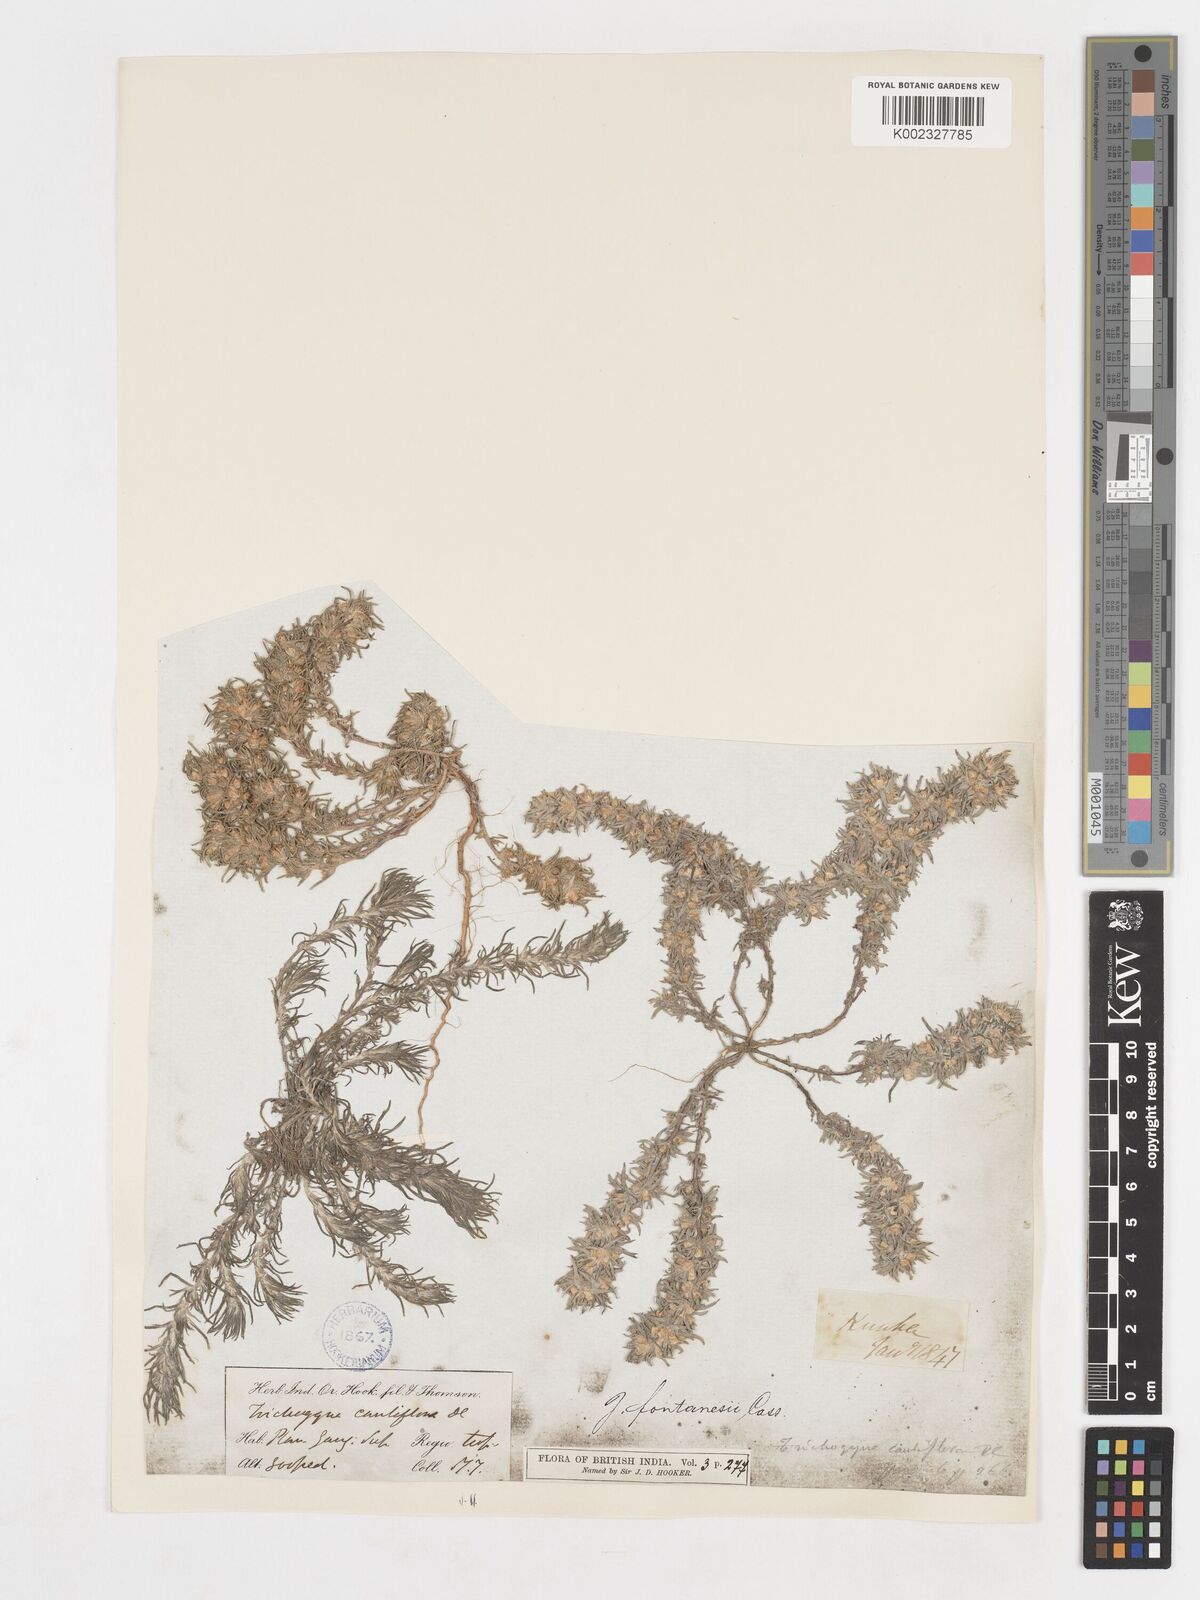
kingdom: Plantae
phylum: Tracheophyta
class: Magnoliopsida
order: Asterales
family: Asteraceae
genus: Ifloga
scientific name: Ifloga spicata
